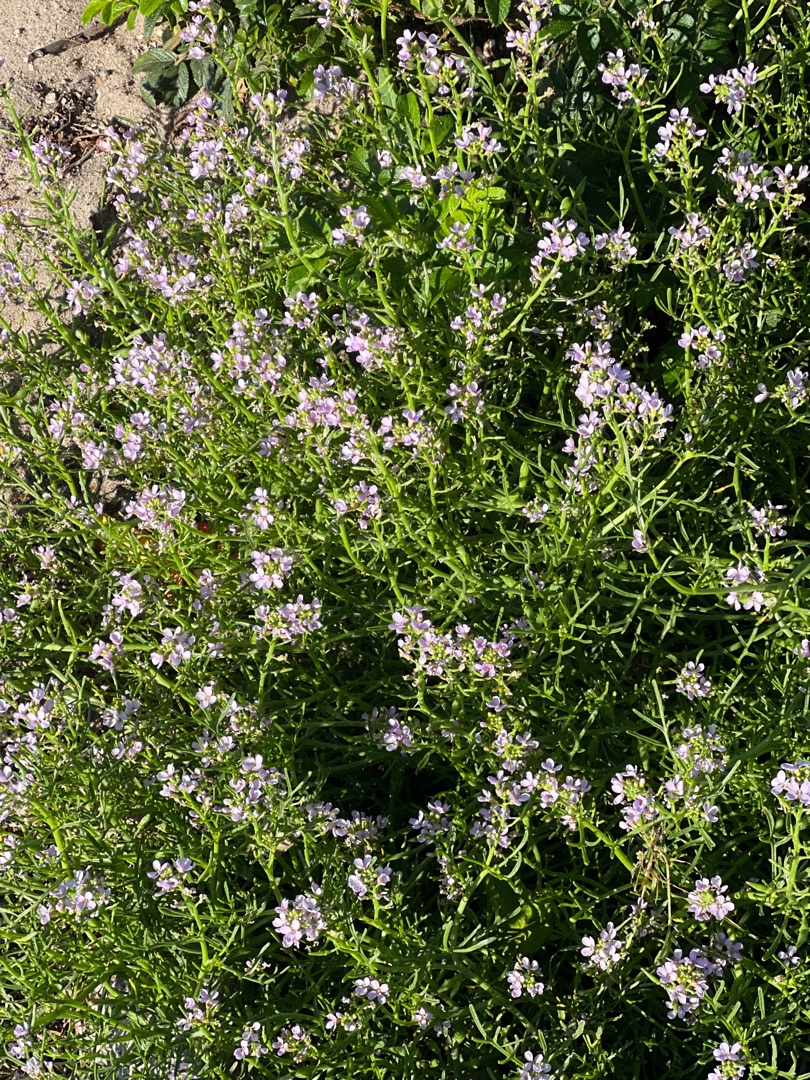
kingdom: Plantae
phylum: Tracheophyta
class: Magnoliopsida
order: Brassicales
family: Brassicaceae
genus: Cakile
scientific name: Cakile maritima
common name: Strandsennep
